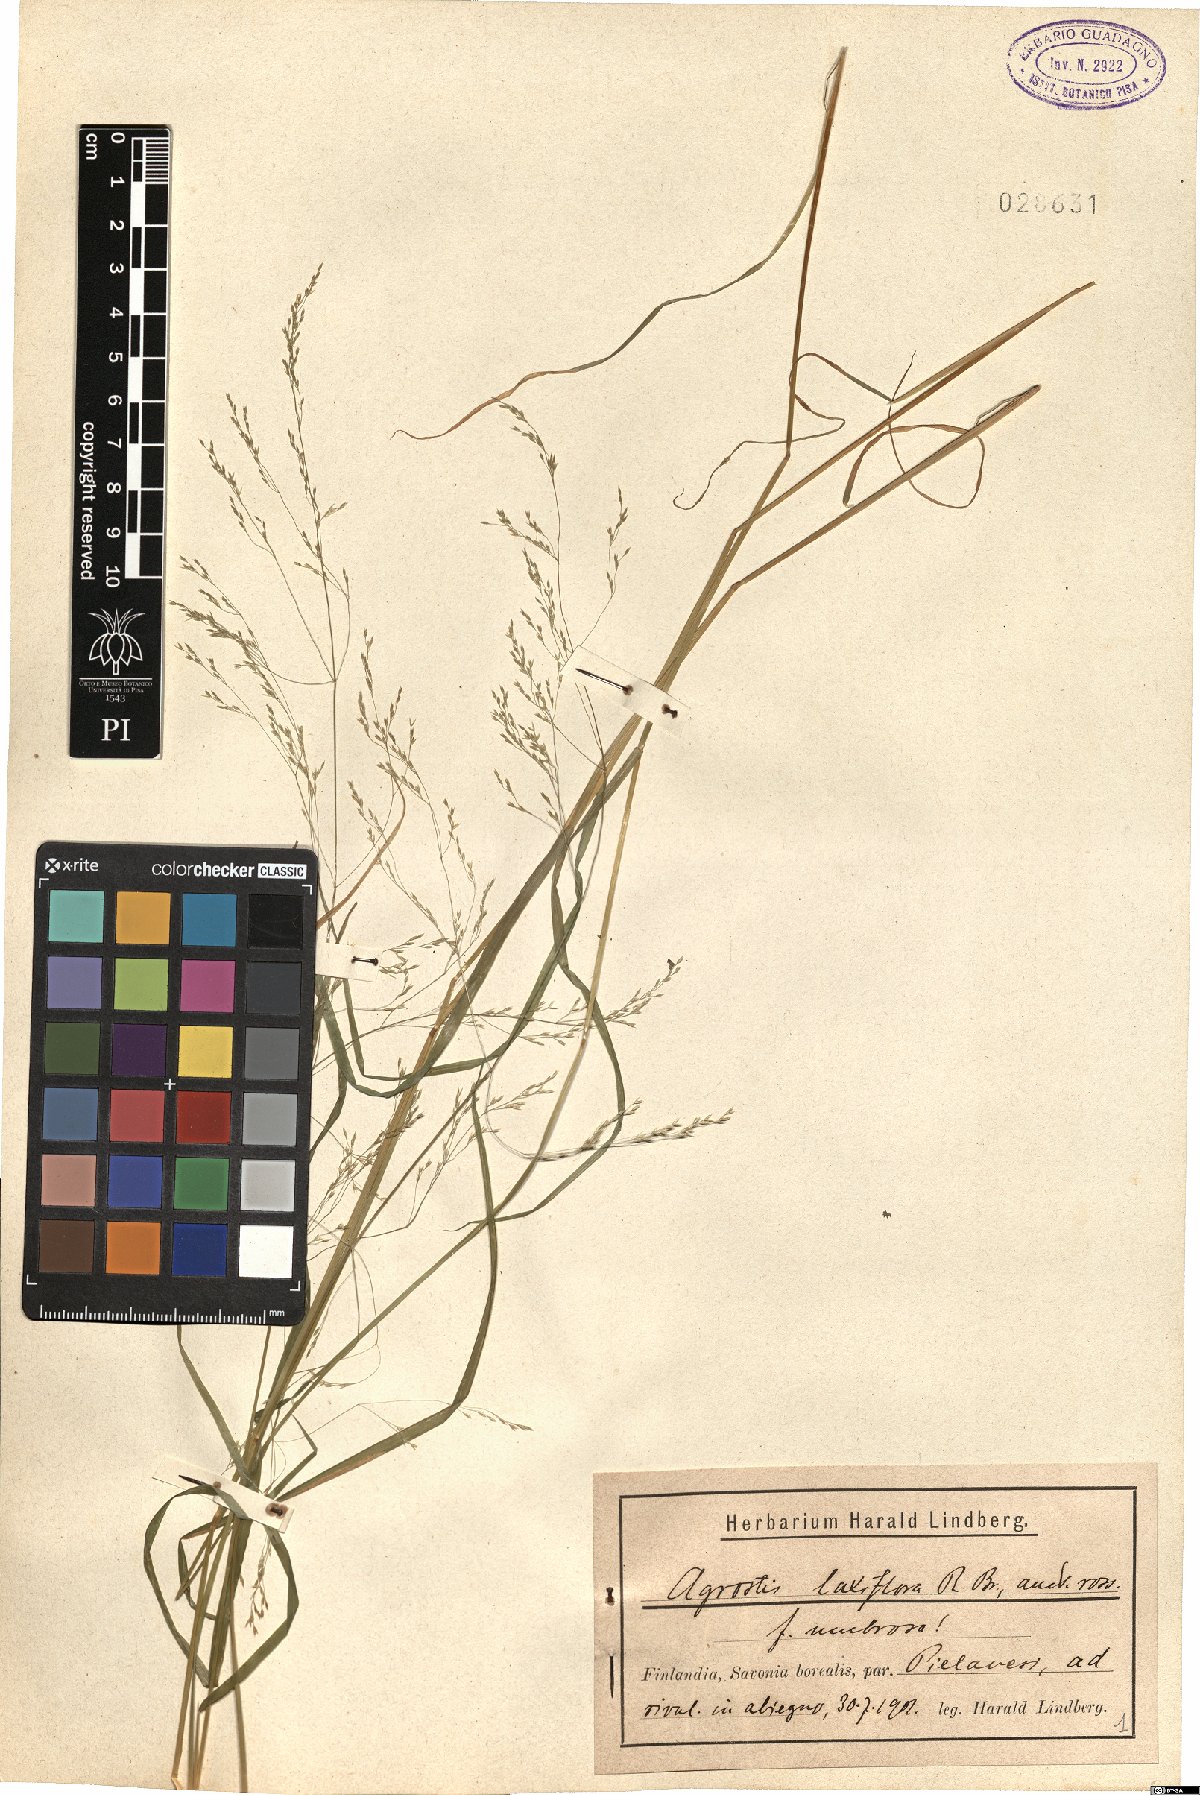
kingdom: Plantae
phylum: Tracheophyta
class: Liliopsida
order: Poales
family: Poaceae
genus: Agrostis
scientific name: Agrostis scabra
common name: Rough bent
